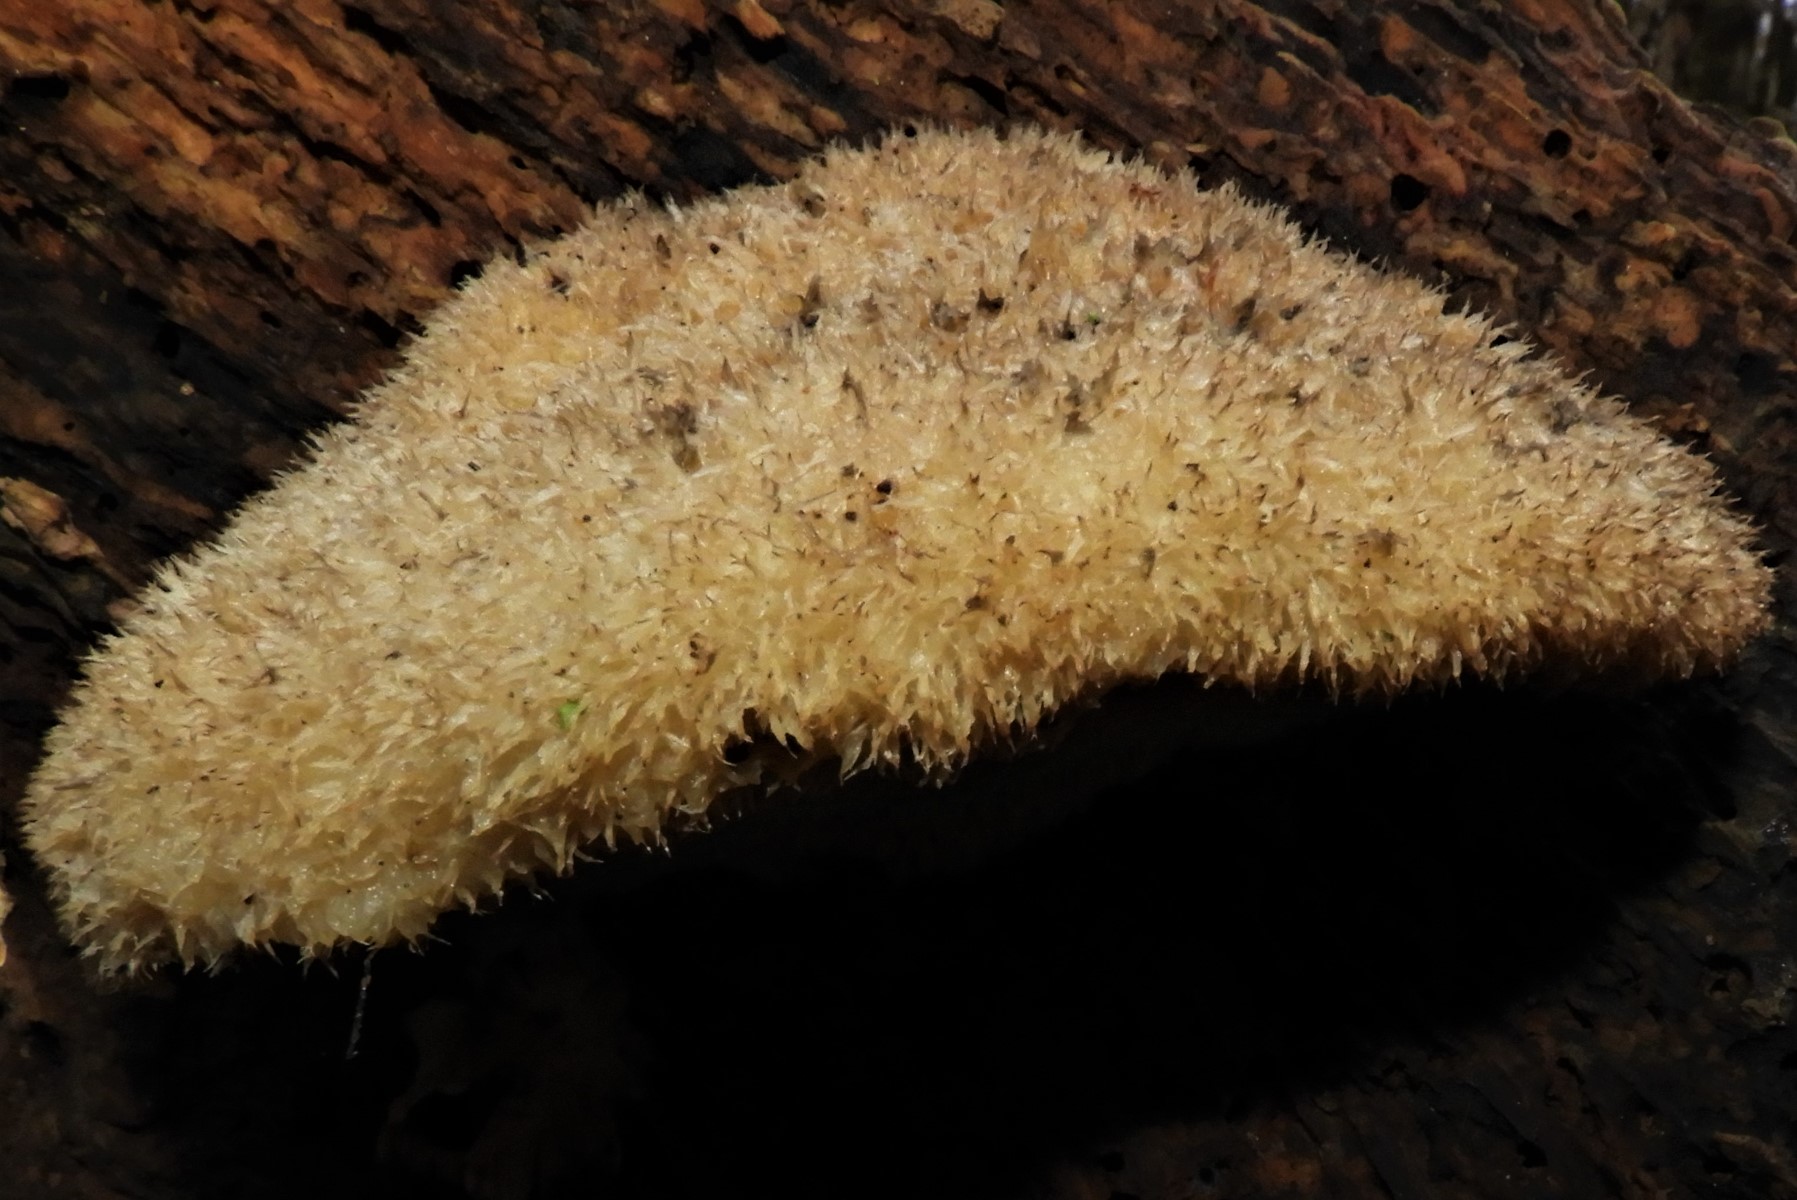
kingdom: Fungi
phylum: Basidiomycota
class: Agaricomycetes
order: Polyporales
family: Polyporaceae
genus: Cyanosporus
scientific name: Cyanosporus
